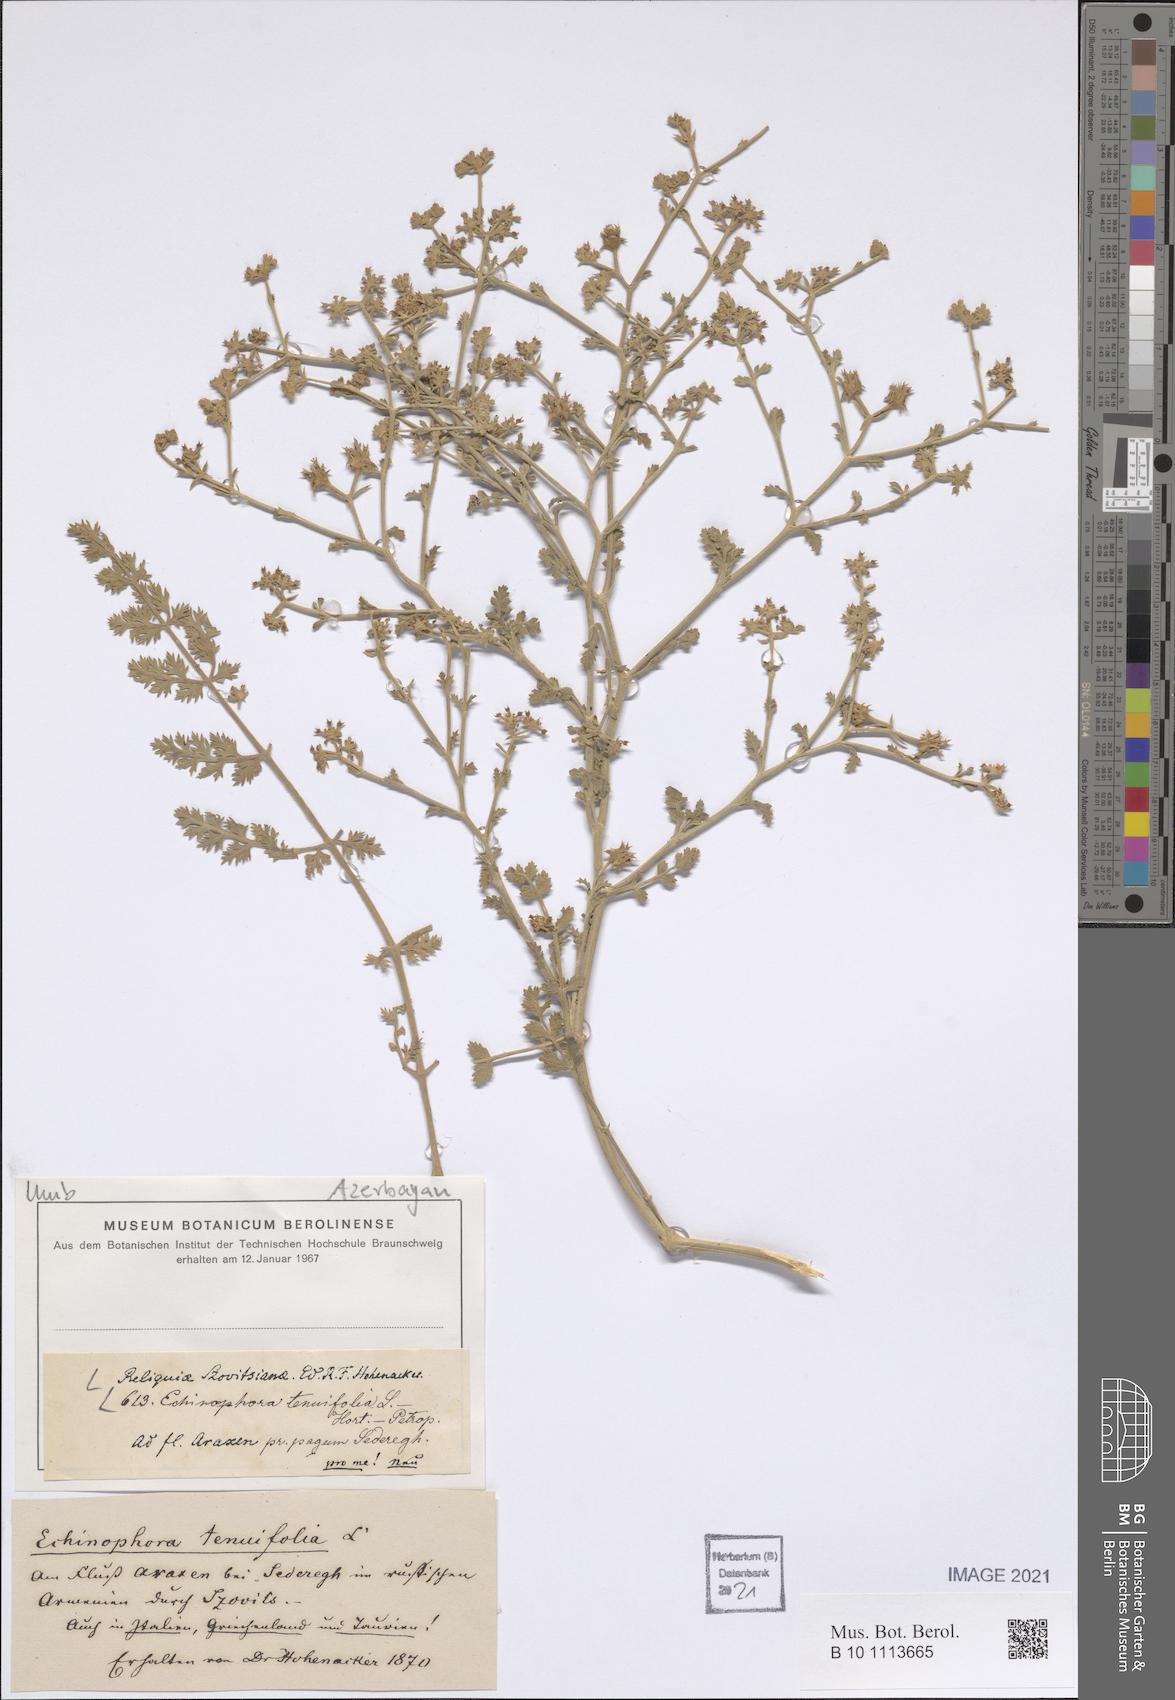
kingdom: Plantae
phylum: Tracheophyta
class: Magnoliopsida
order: Apiales
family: Apiaceae
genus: Echinophora
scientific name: Echinophora tenuifolia
